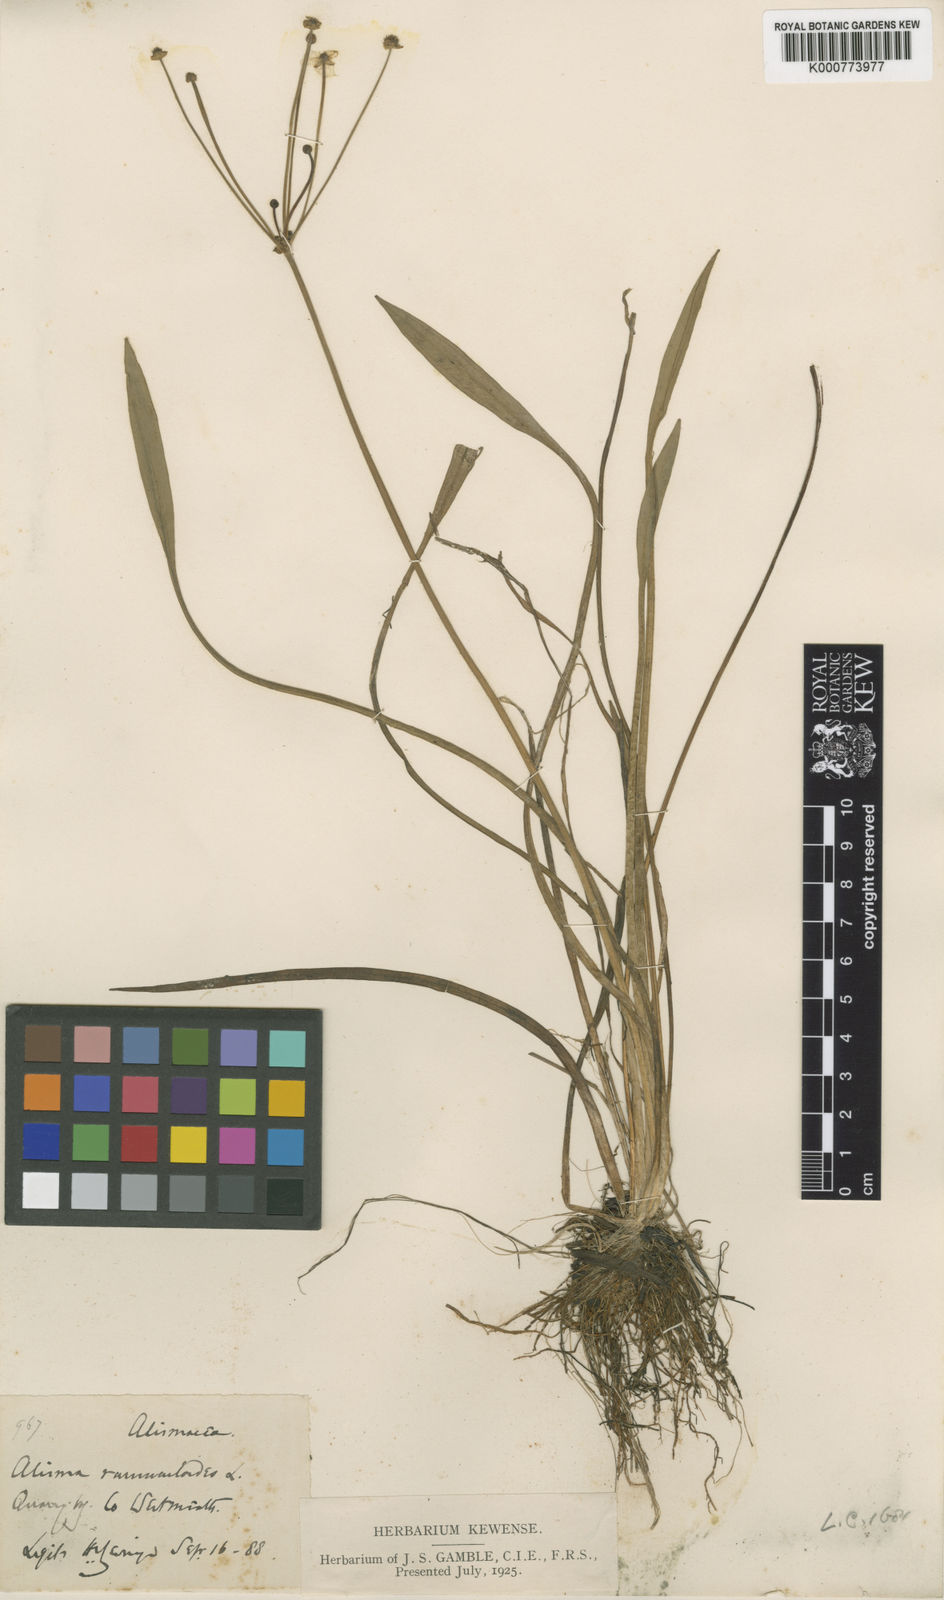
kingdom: Plantae
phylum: Tracheophyta
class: Liliopsida
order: Alismatales
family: Alismataceae
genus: Baldellia
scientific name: Baldellia ranunculoides
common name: Lesser water-plantain
